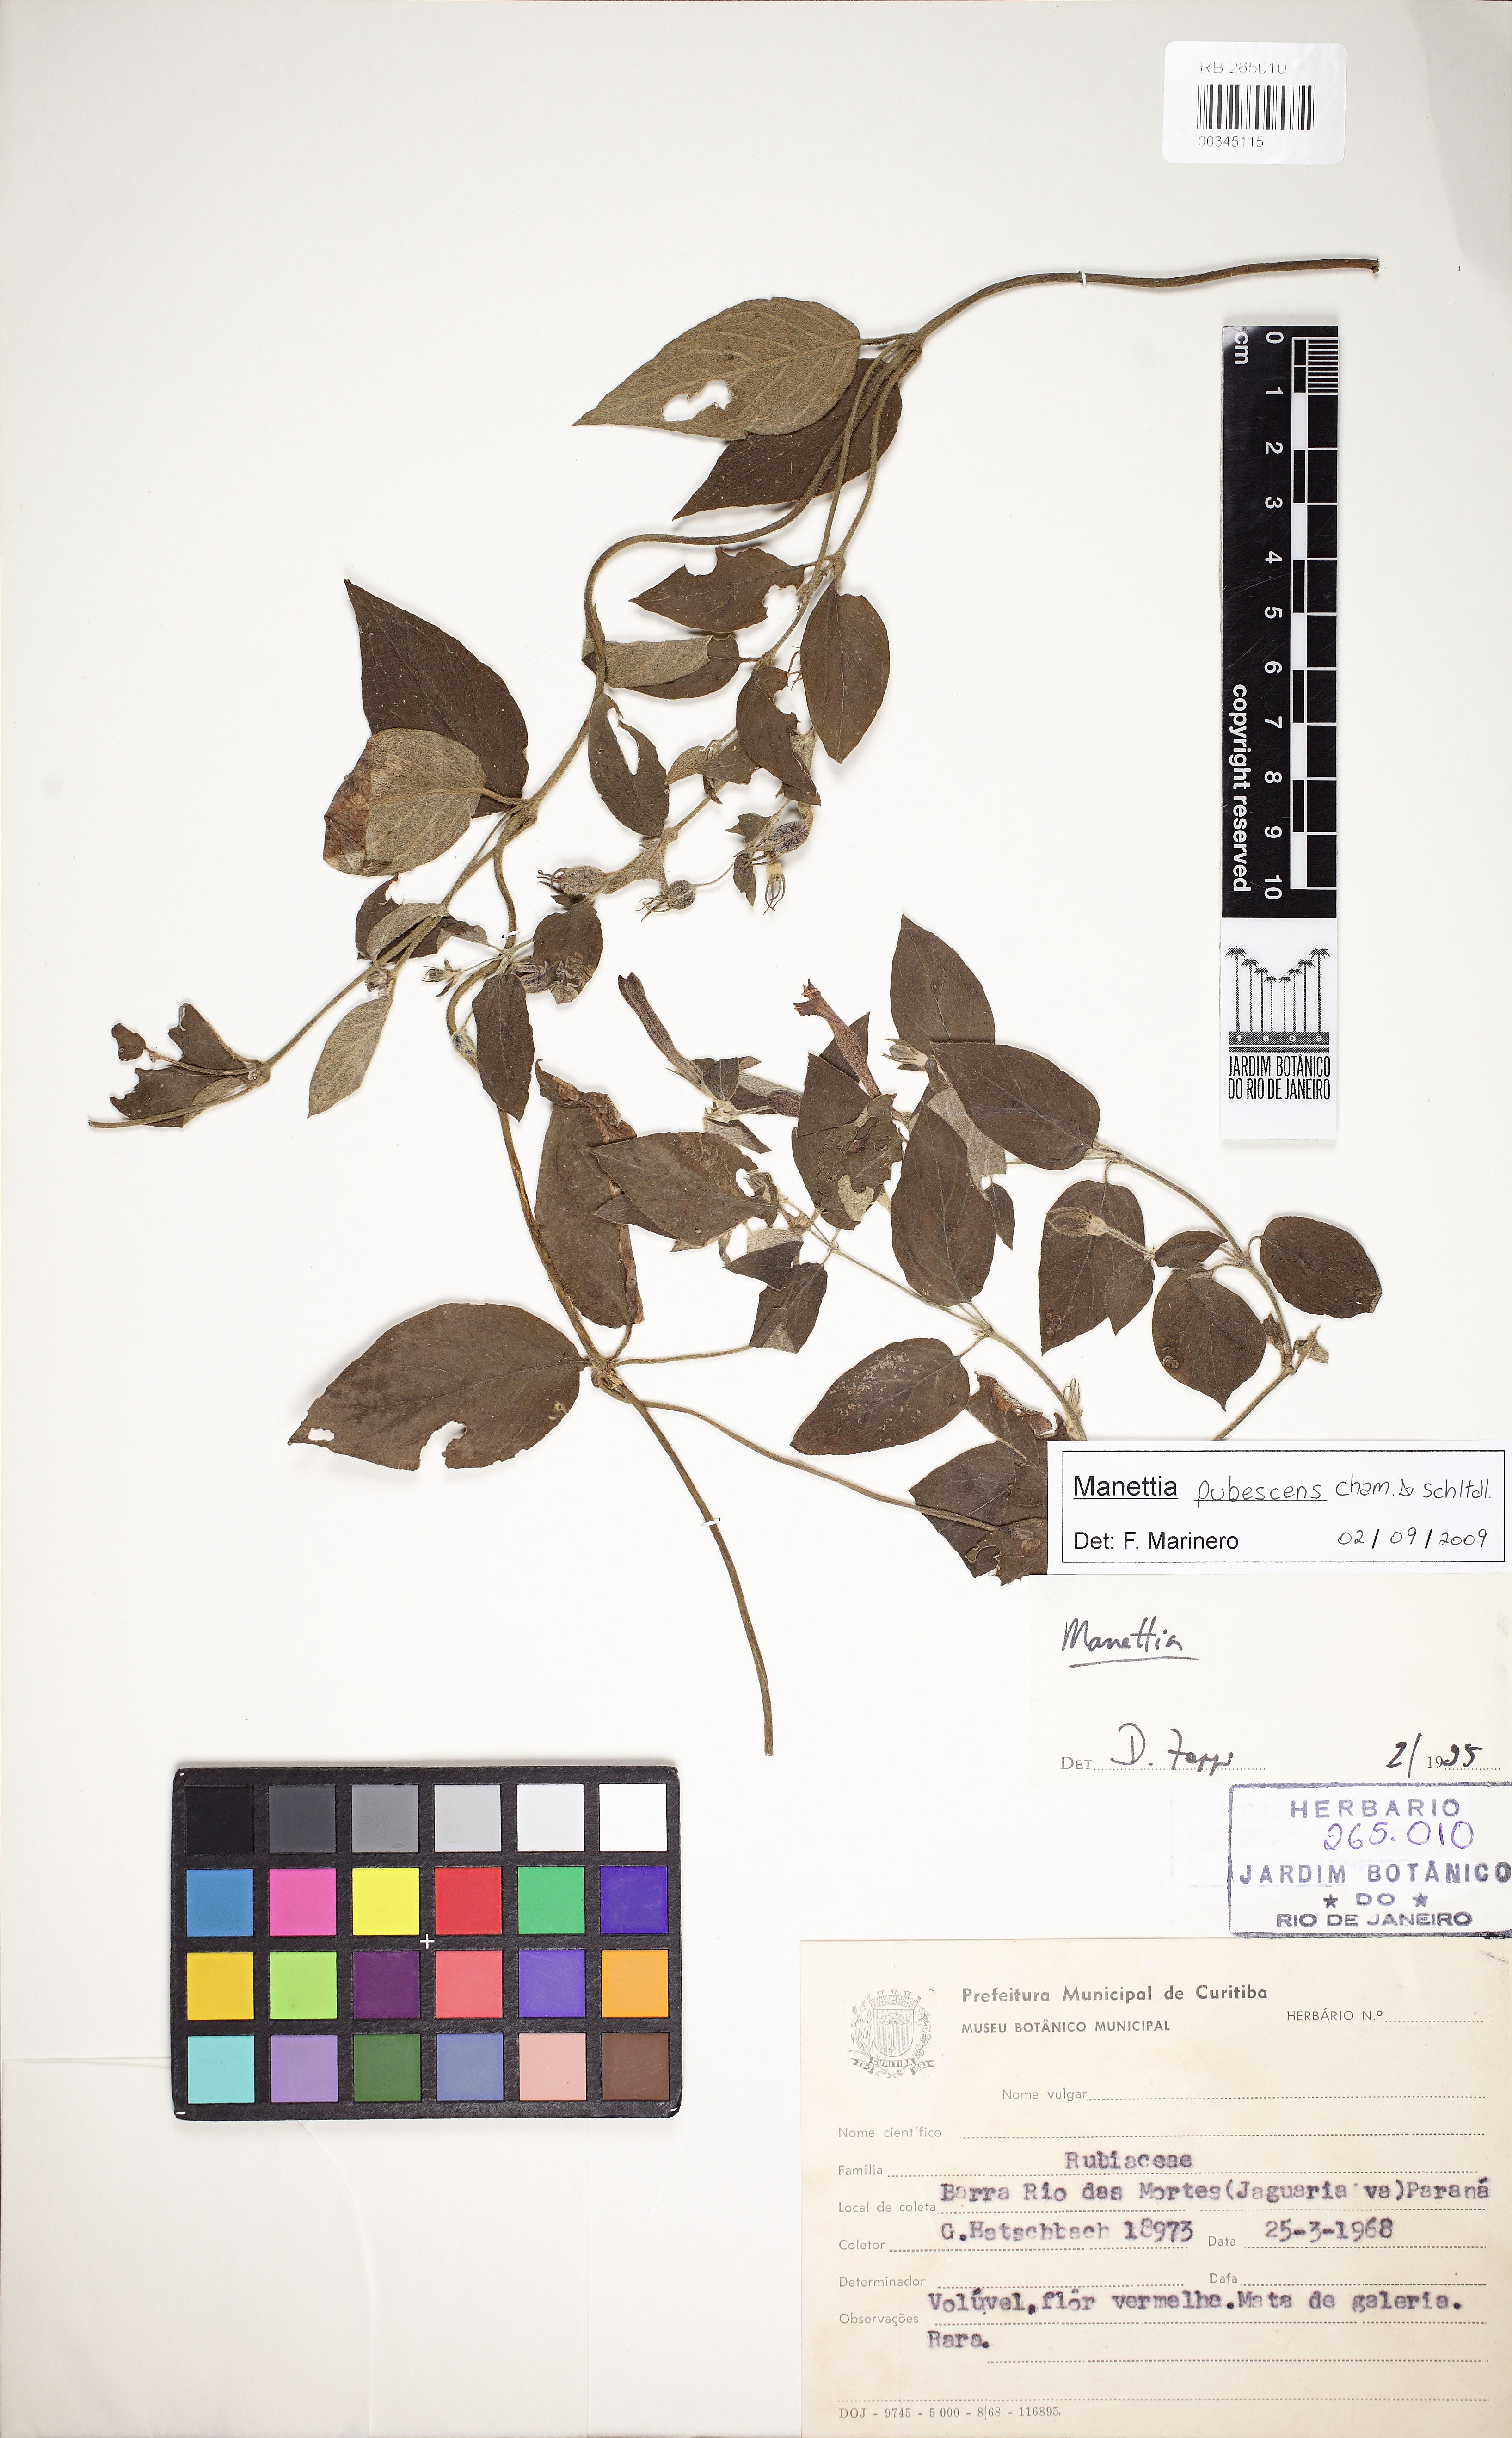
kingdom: Plantae
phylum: Tracheophyta
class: Magnoliopsida
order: Gentianales
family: Rubiaceae
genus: Manettia
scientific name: Manettia pubescens
